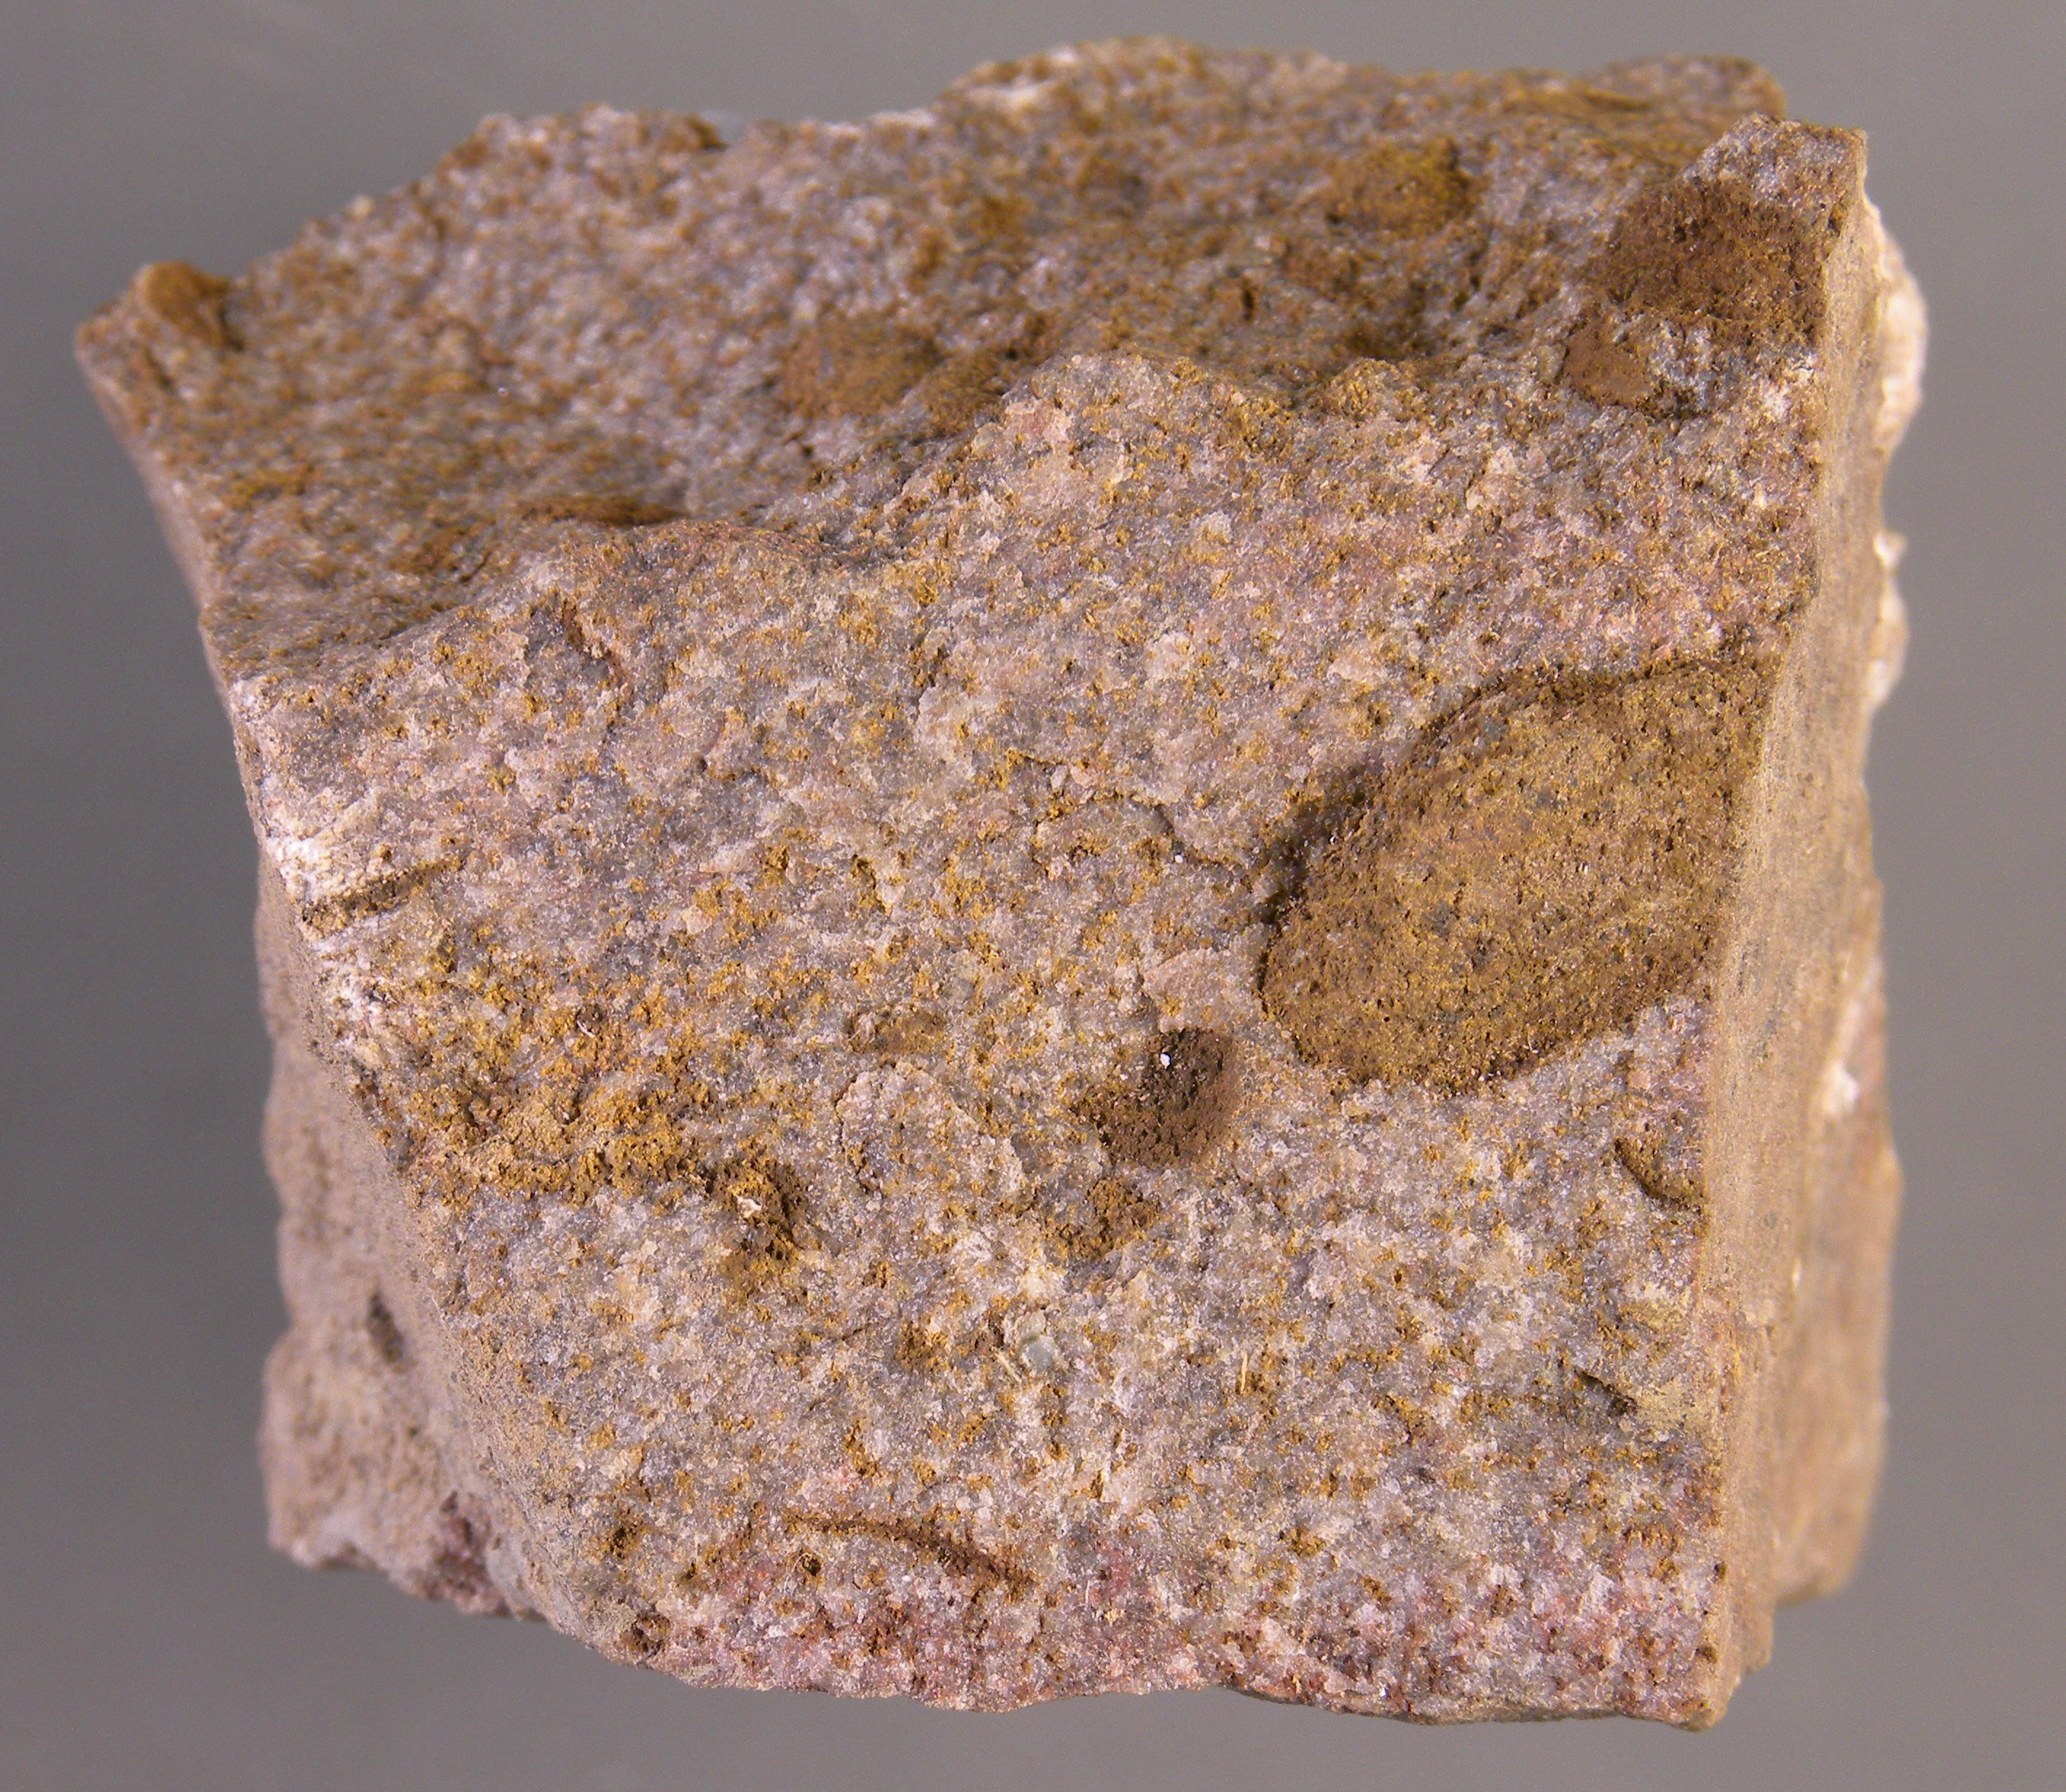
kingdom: Animalia
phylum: Mollusca
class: Bivalvia
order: Nuculanida
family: Malletiidae
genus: Palaeoneilo
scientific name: Palaeoneilo
